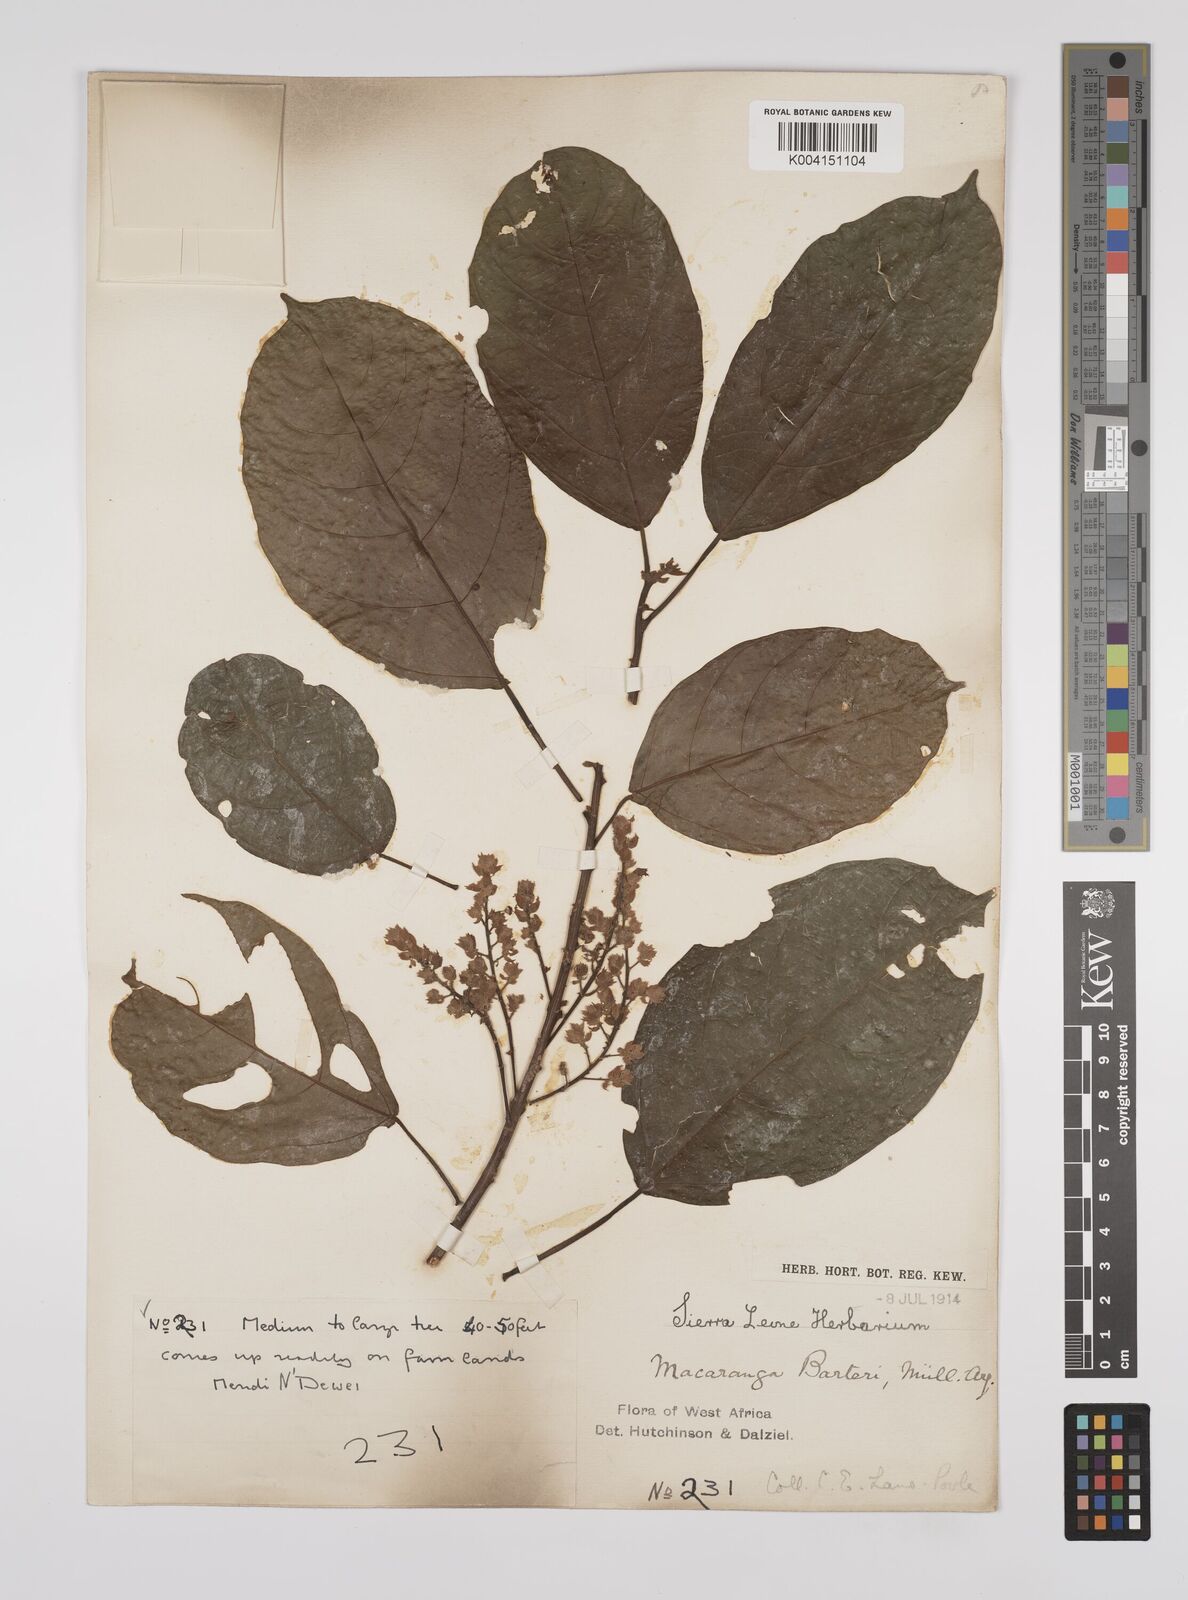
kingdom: Plantae
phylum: Tracheophyta
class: Magnoliopsida
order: Malpighiales
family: Euphorbiaceae
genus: Macaranga
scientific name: Macaranga barteri
